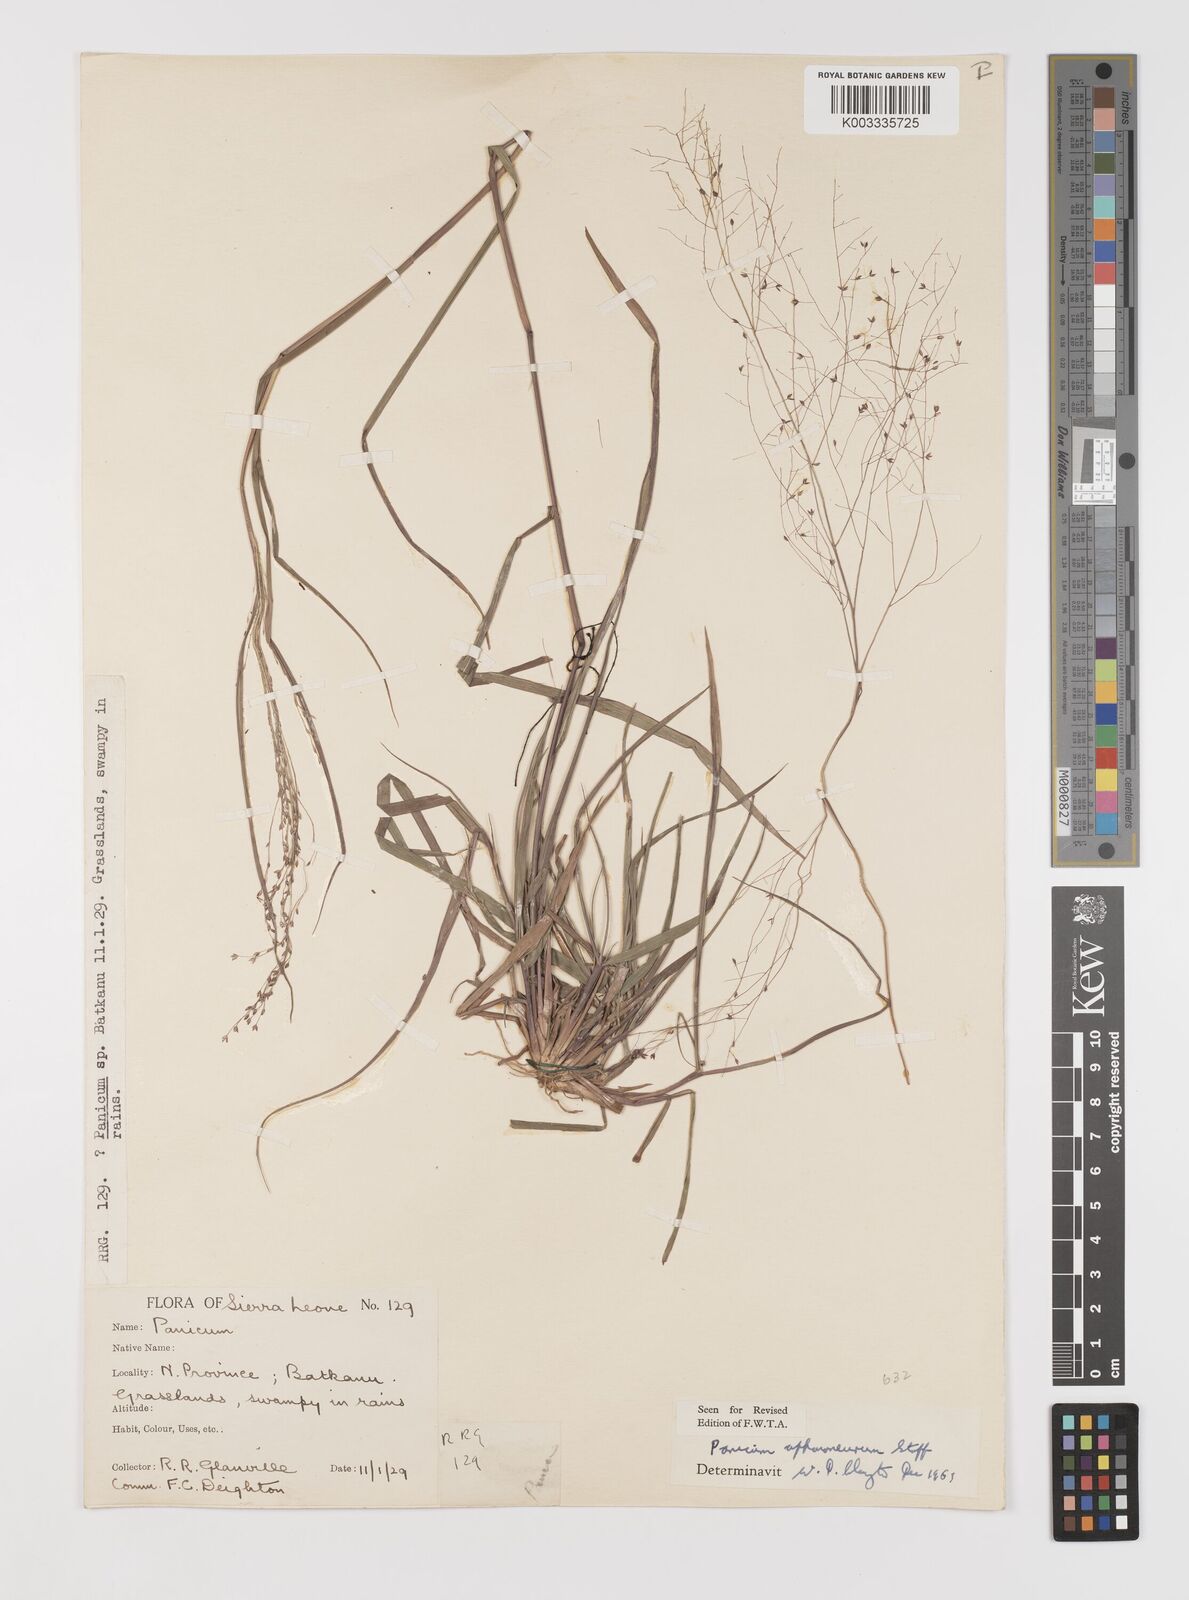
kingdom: Plantae
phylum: Tracheophyta
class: Liliopsida
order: Poales
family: Poaceae
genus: Panicum
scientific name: Panicum fluviicola
